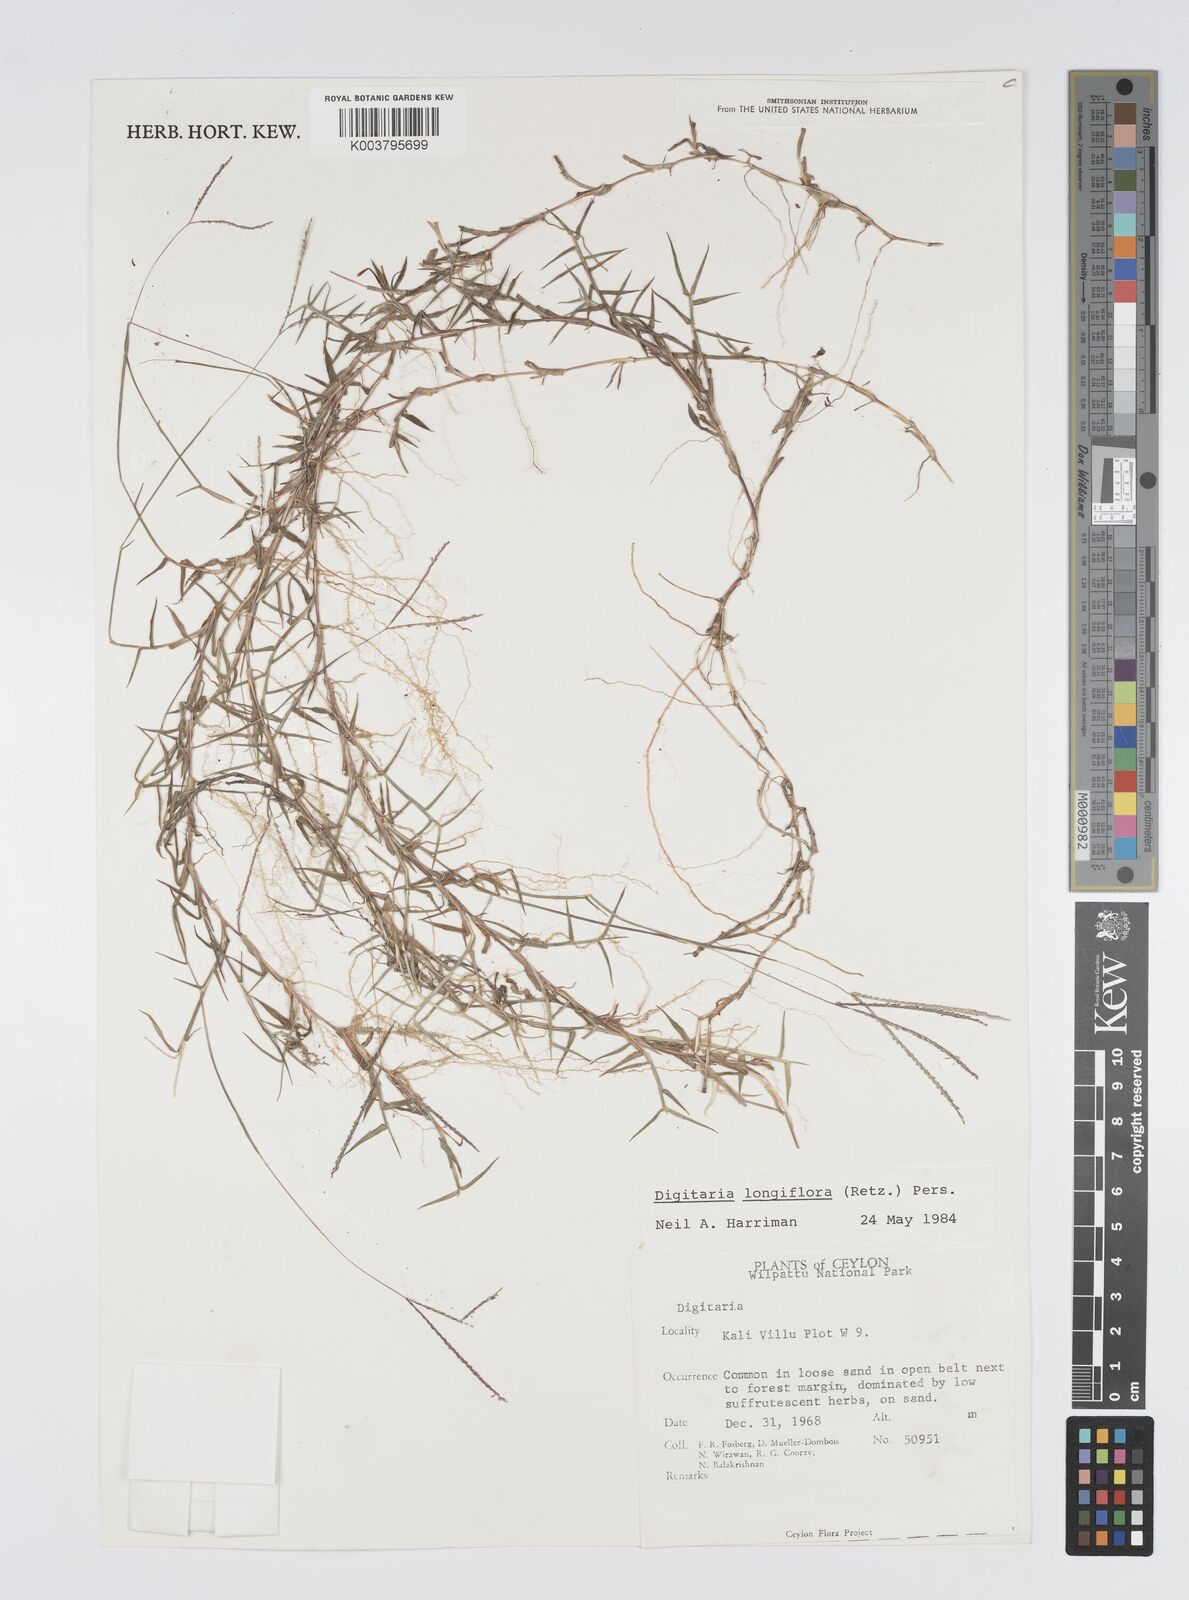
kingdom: Plantae
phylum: Tracheophyta
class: Liliopsida
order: Poales
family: Poaceae
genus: Digitaria
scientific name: Digitaria longiflora
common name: Wire crabgrass
